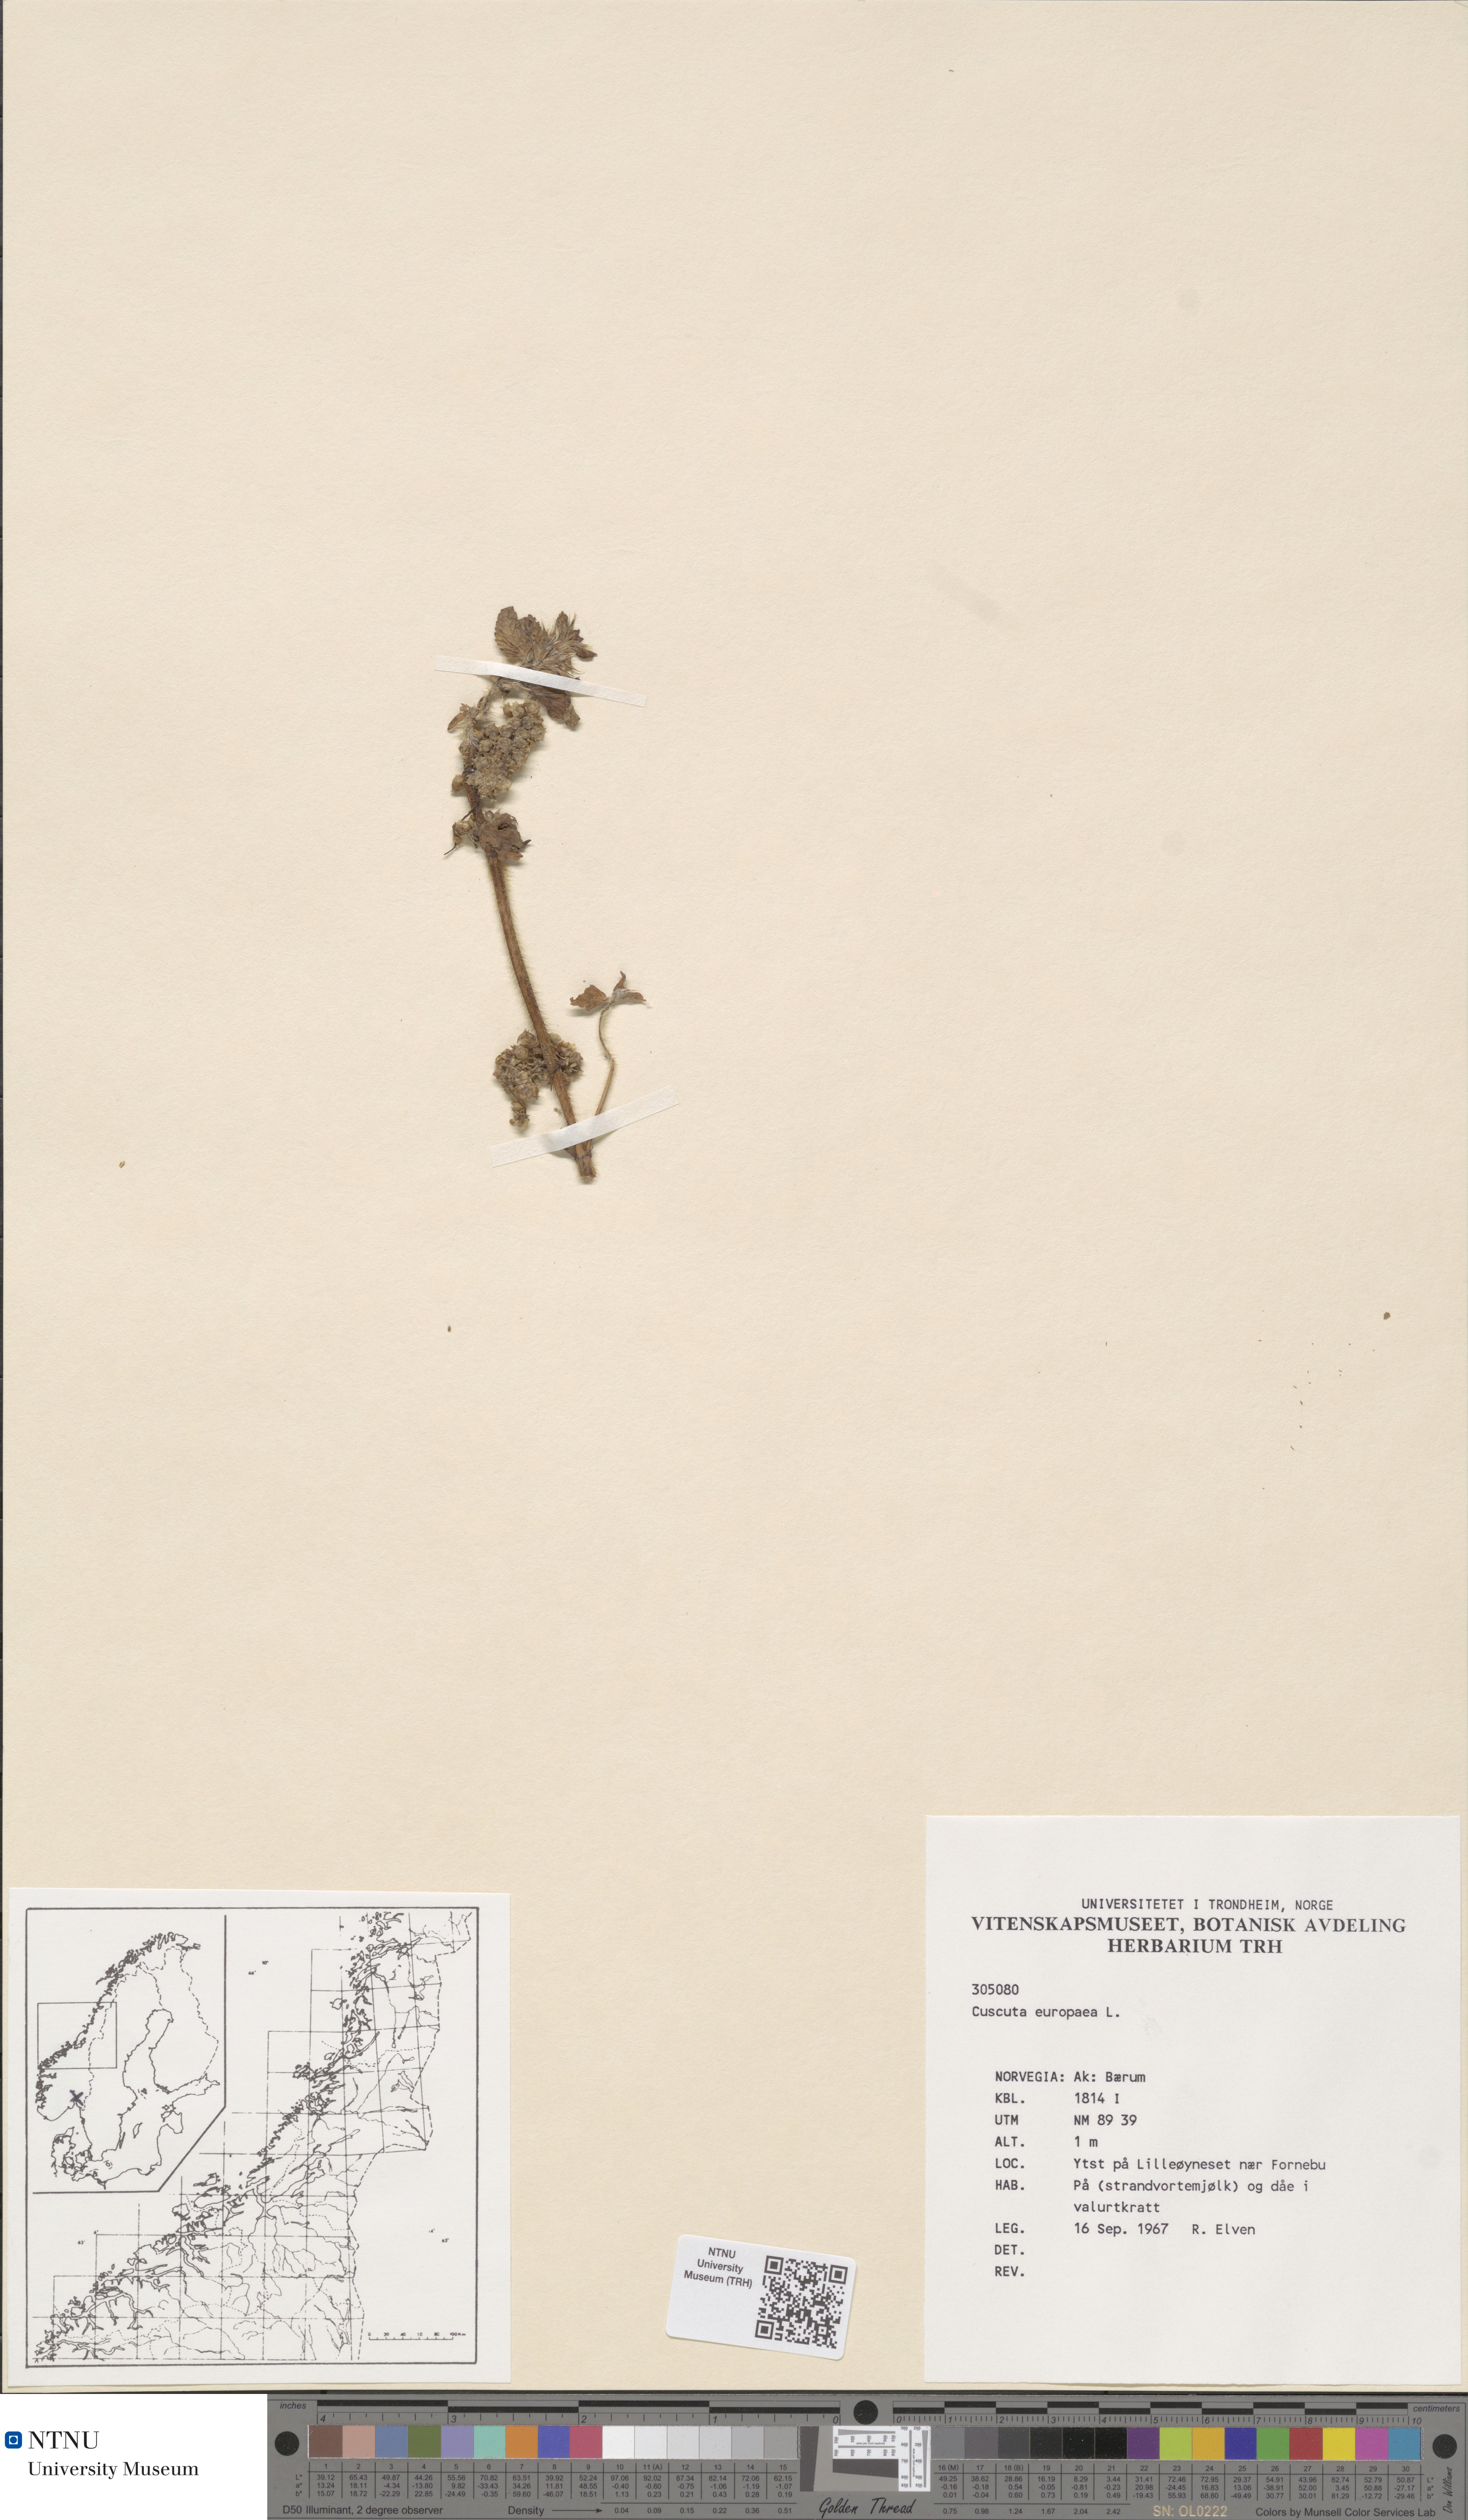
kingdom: Plantae
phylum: Tracheophyta
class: Magnoliopsida
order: Solanales
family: Convolvulaceae
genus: Cuscuta
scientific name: Cuscuta europaea
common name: Greater dodder
